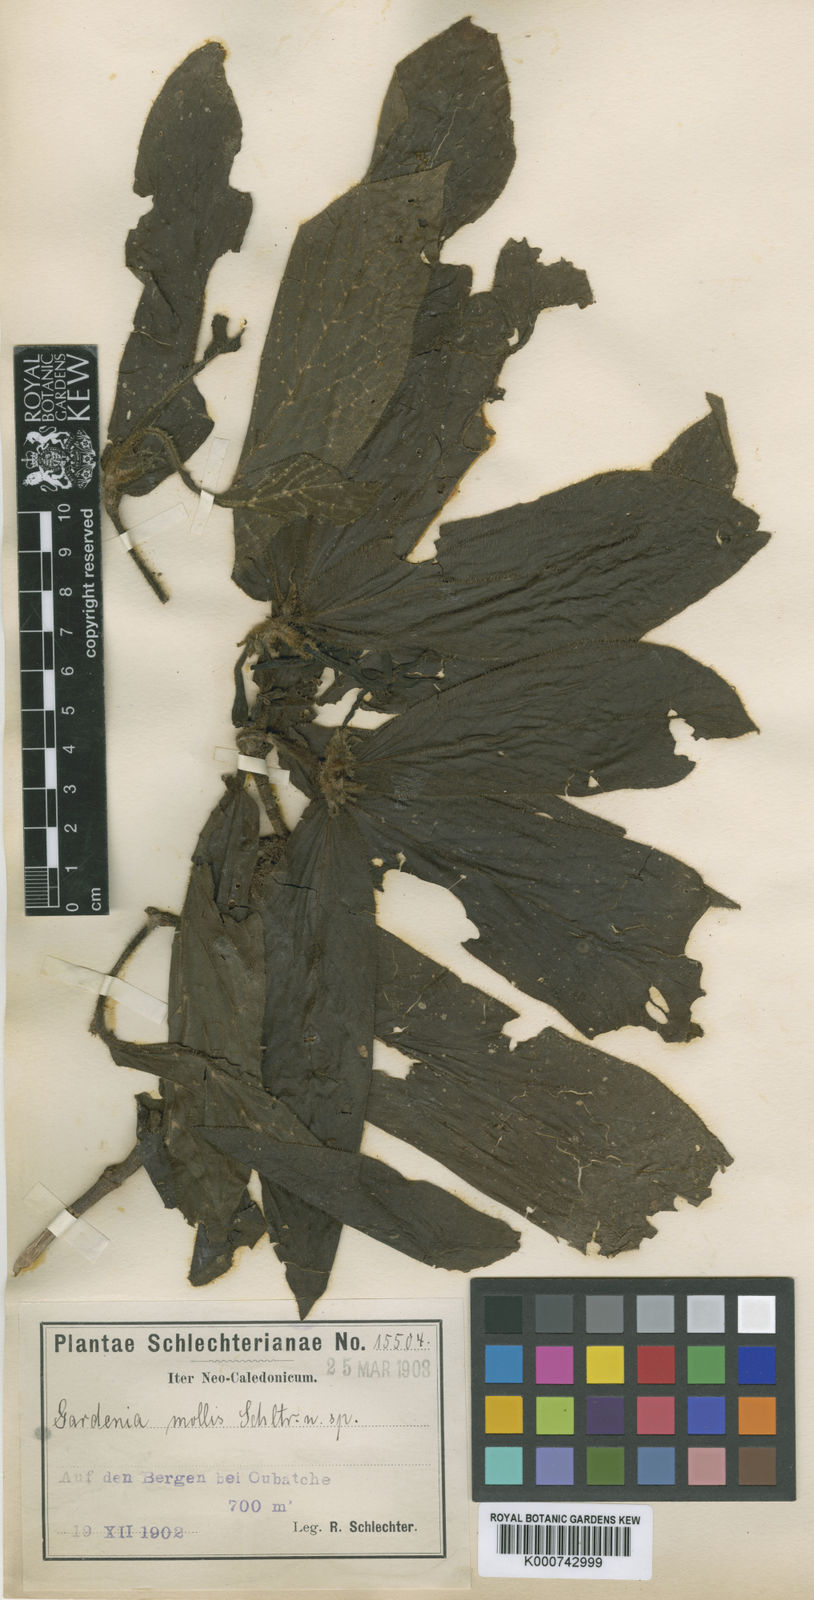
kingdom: Plantae
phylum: Tracheophyta
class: Magnoliopsida
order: Gentianales
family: Rubiaceae
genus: Atractocarpus
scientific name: Atractocarpus mollis
